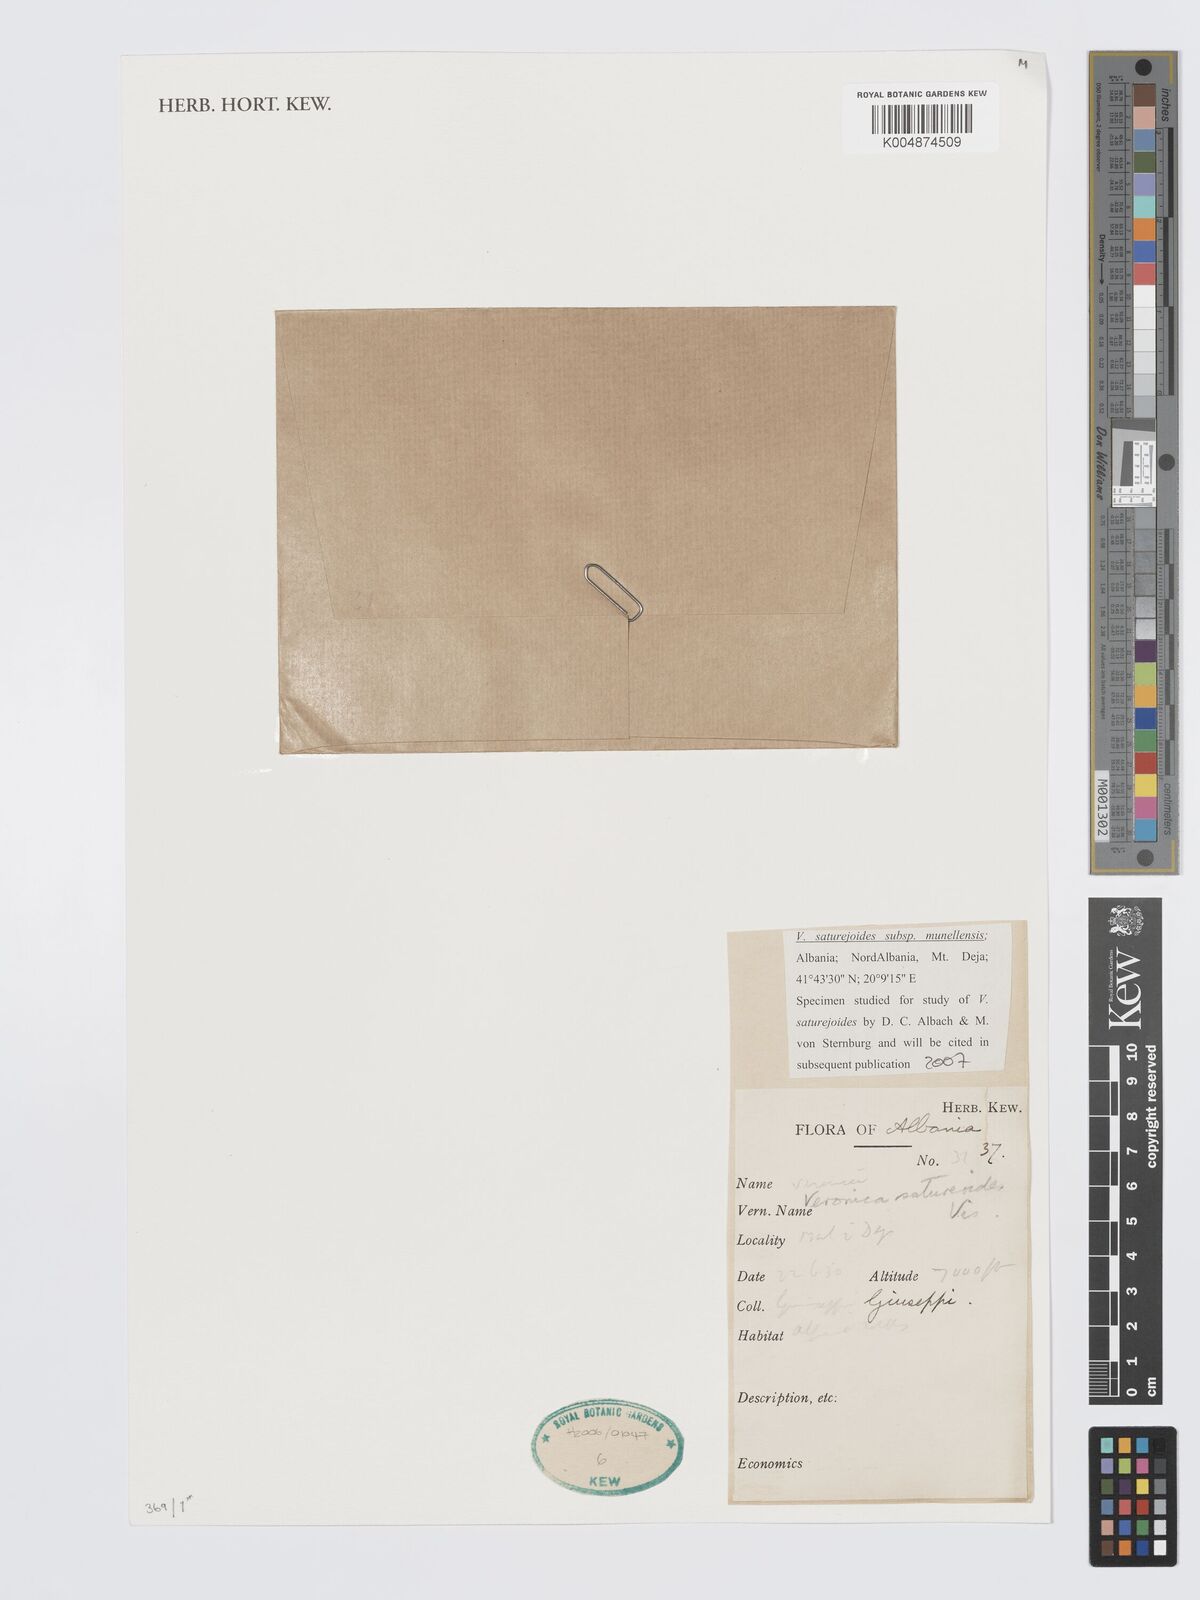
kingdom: Plantae
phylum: Tracheophyta
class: Magnoliopsida
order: Lamiales
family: Plantaginaceae
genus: Veronica
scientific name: Veronica
